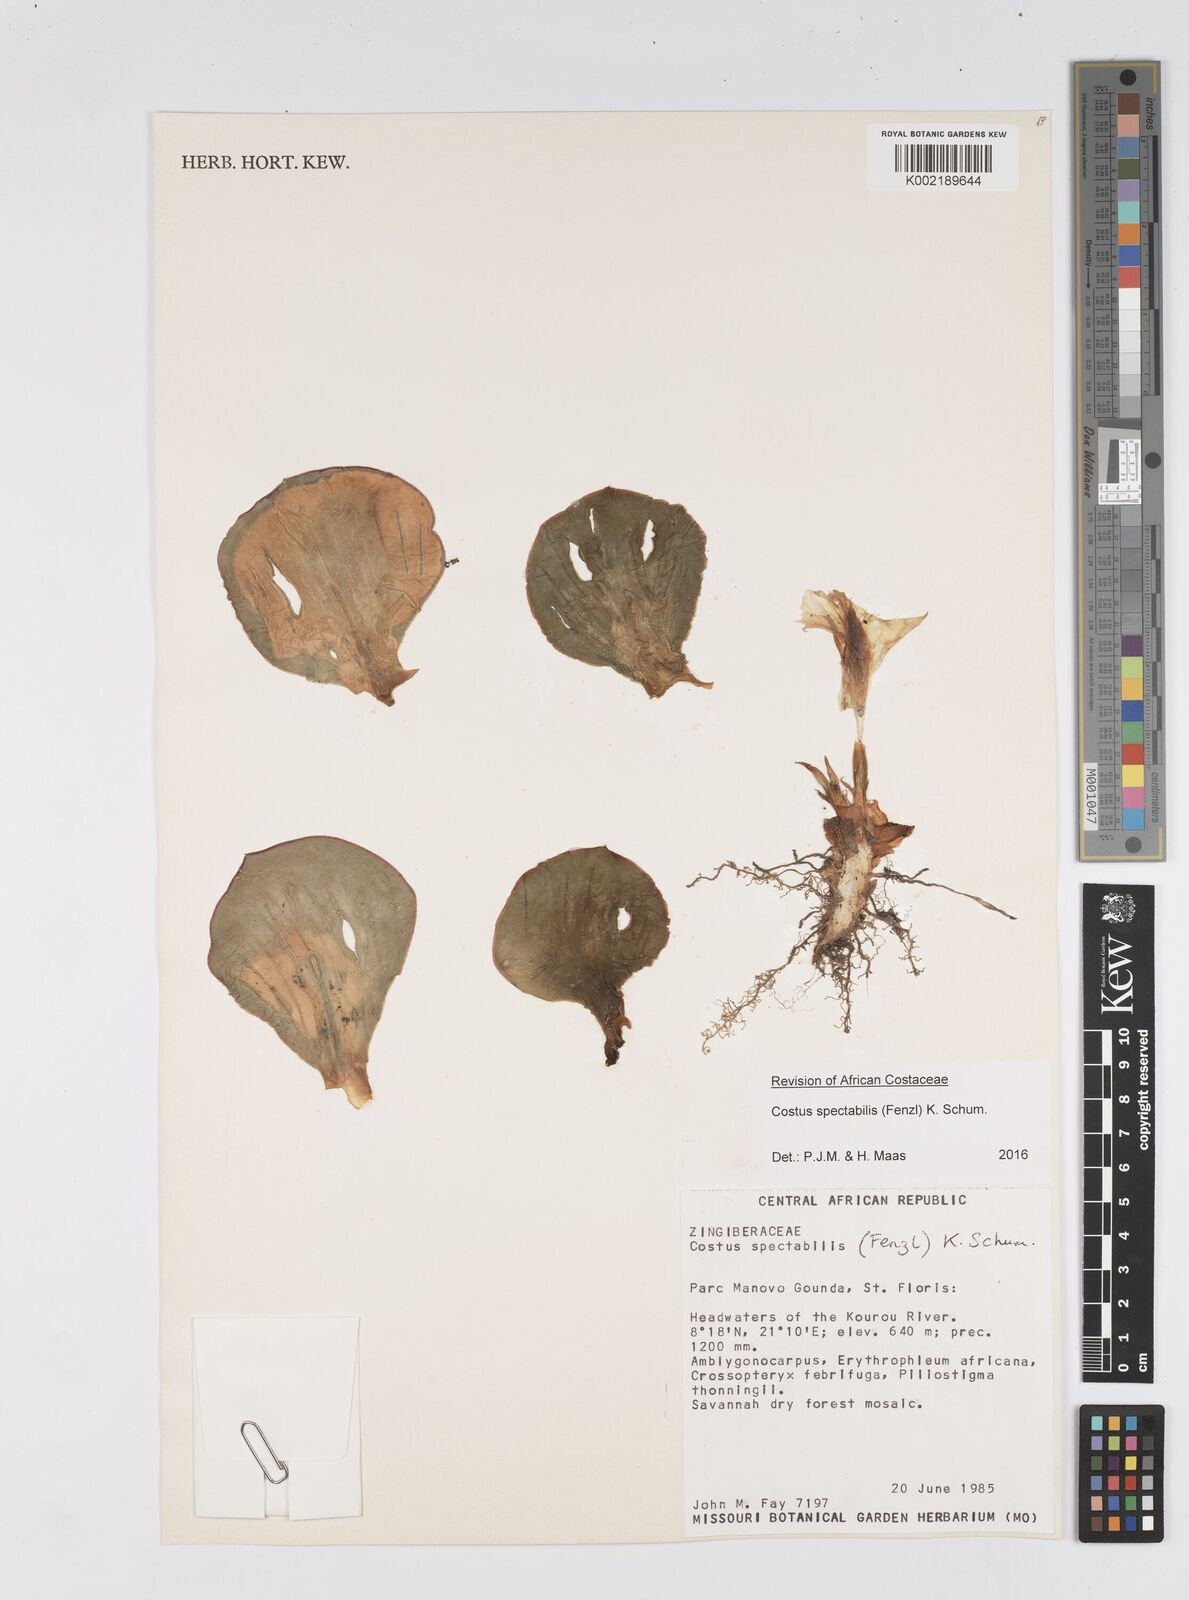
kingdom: Plantae
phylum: Tracheophyta
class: Liliopsida
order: Zingiberales
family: Costaceae
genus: Costus
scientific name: Costus spectabilis
